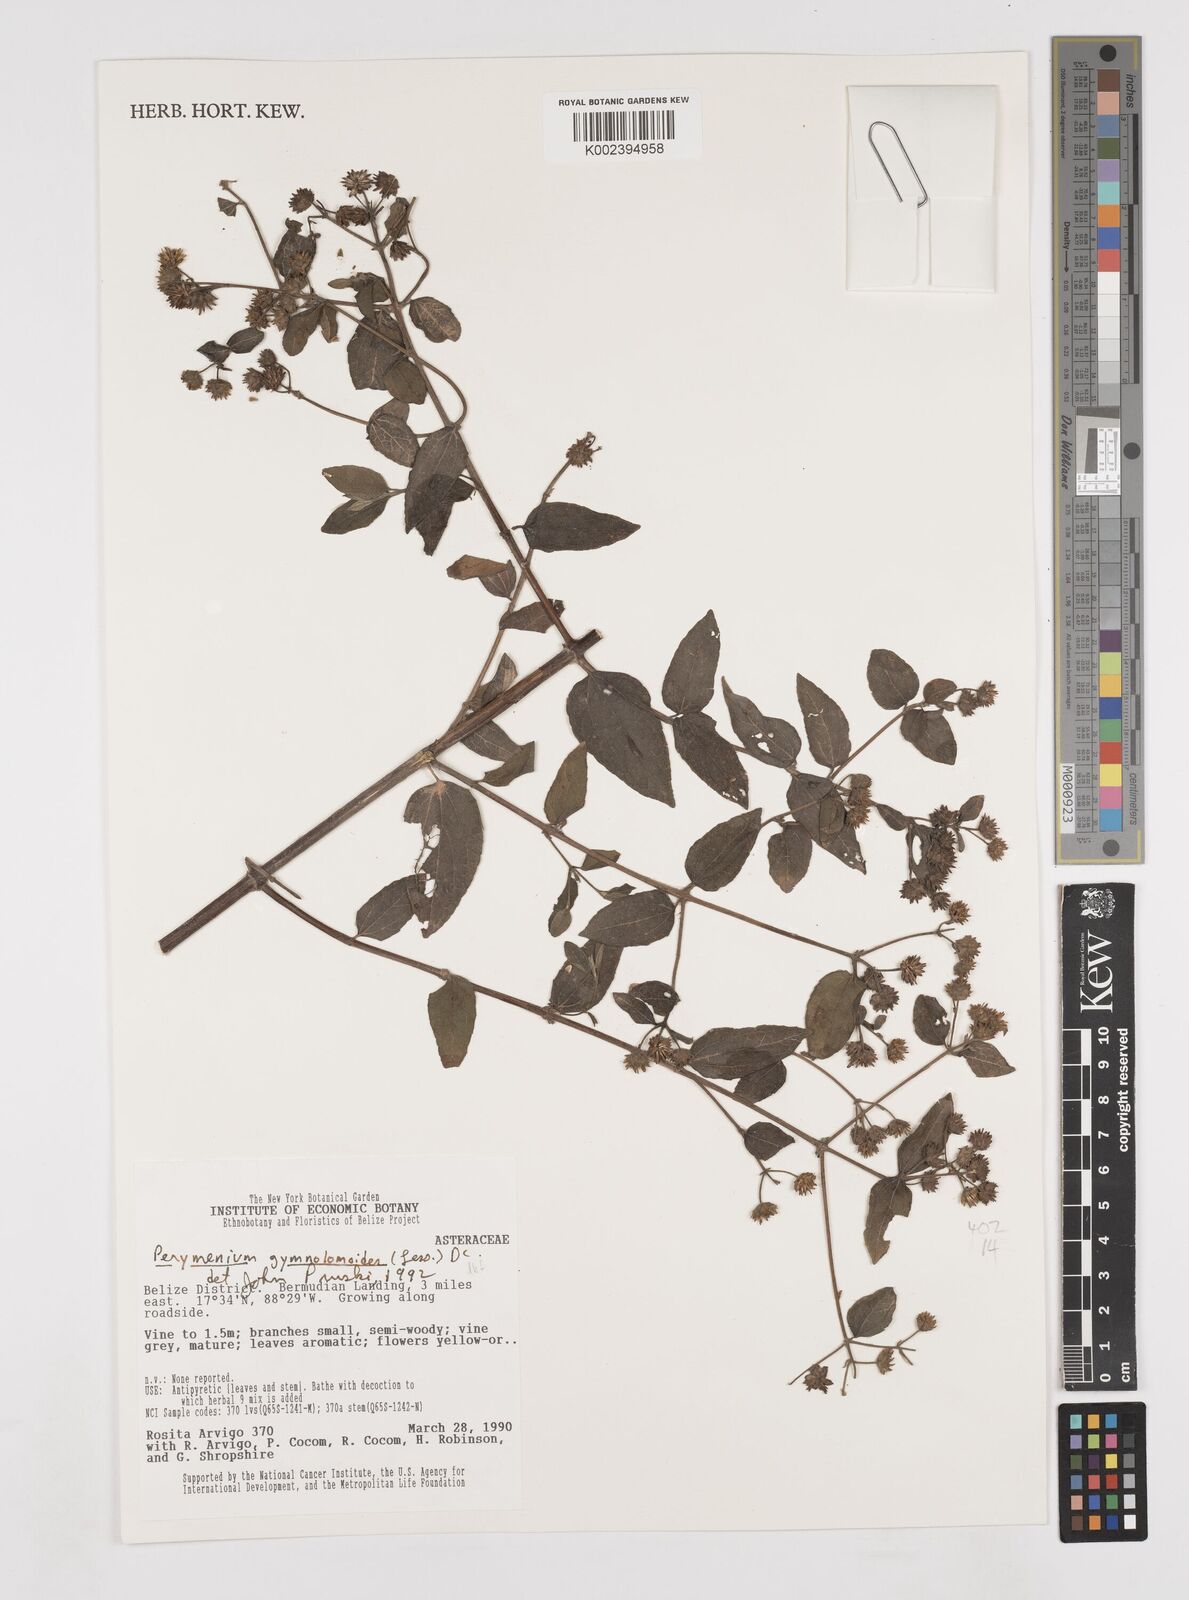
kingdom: Plantae
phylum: Tracheophyta
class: Magnoliopsida
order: Asterales
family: Asteraceae
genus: Perymenium
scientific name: Perymenium gymnolomoides
